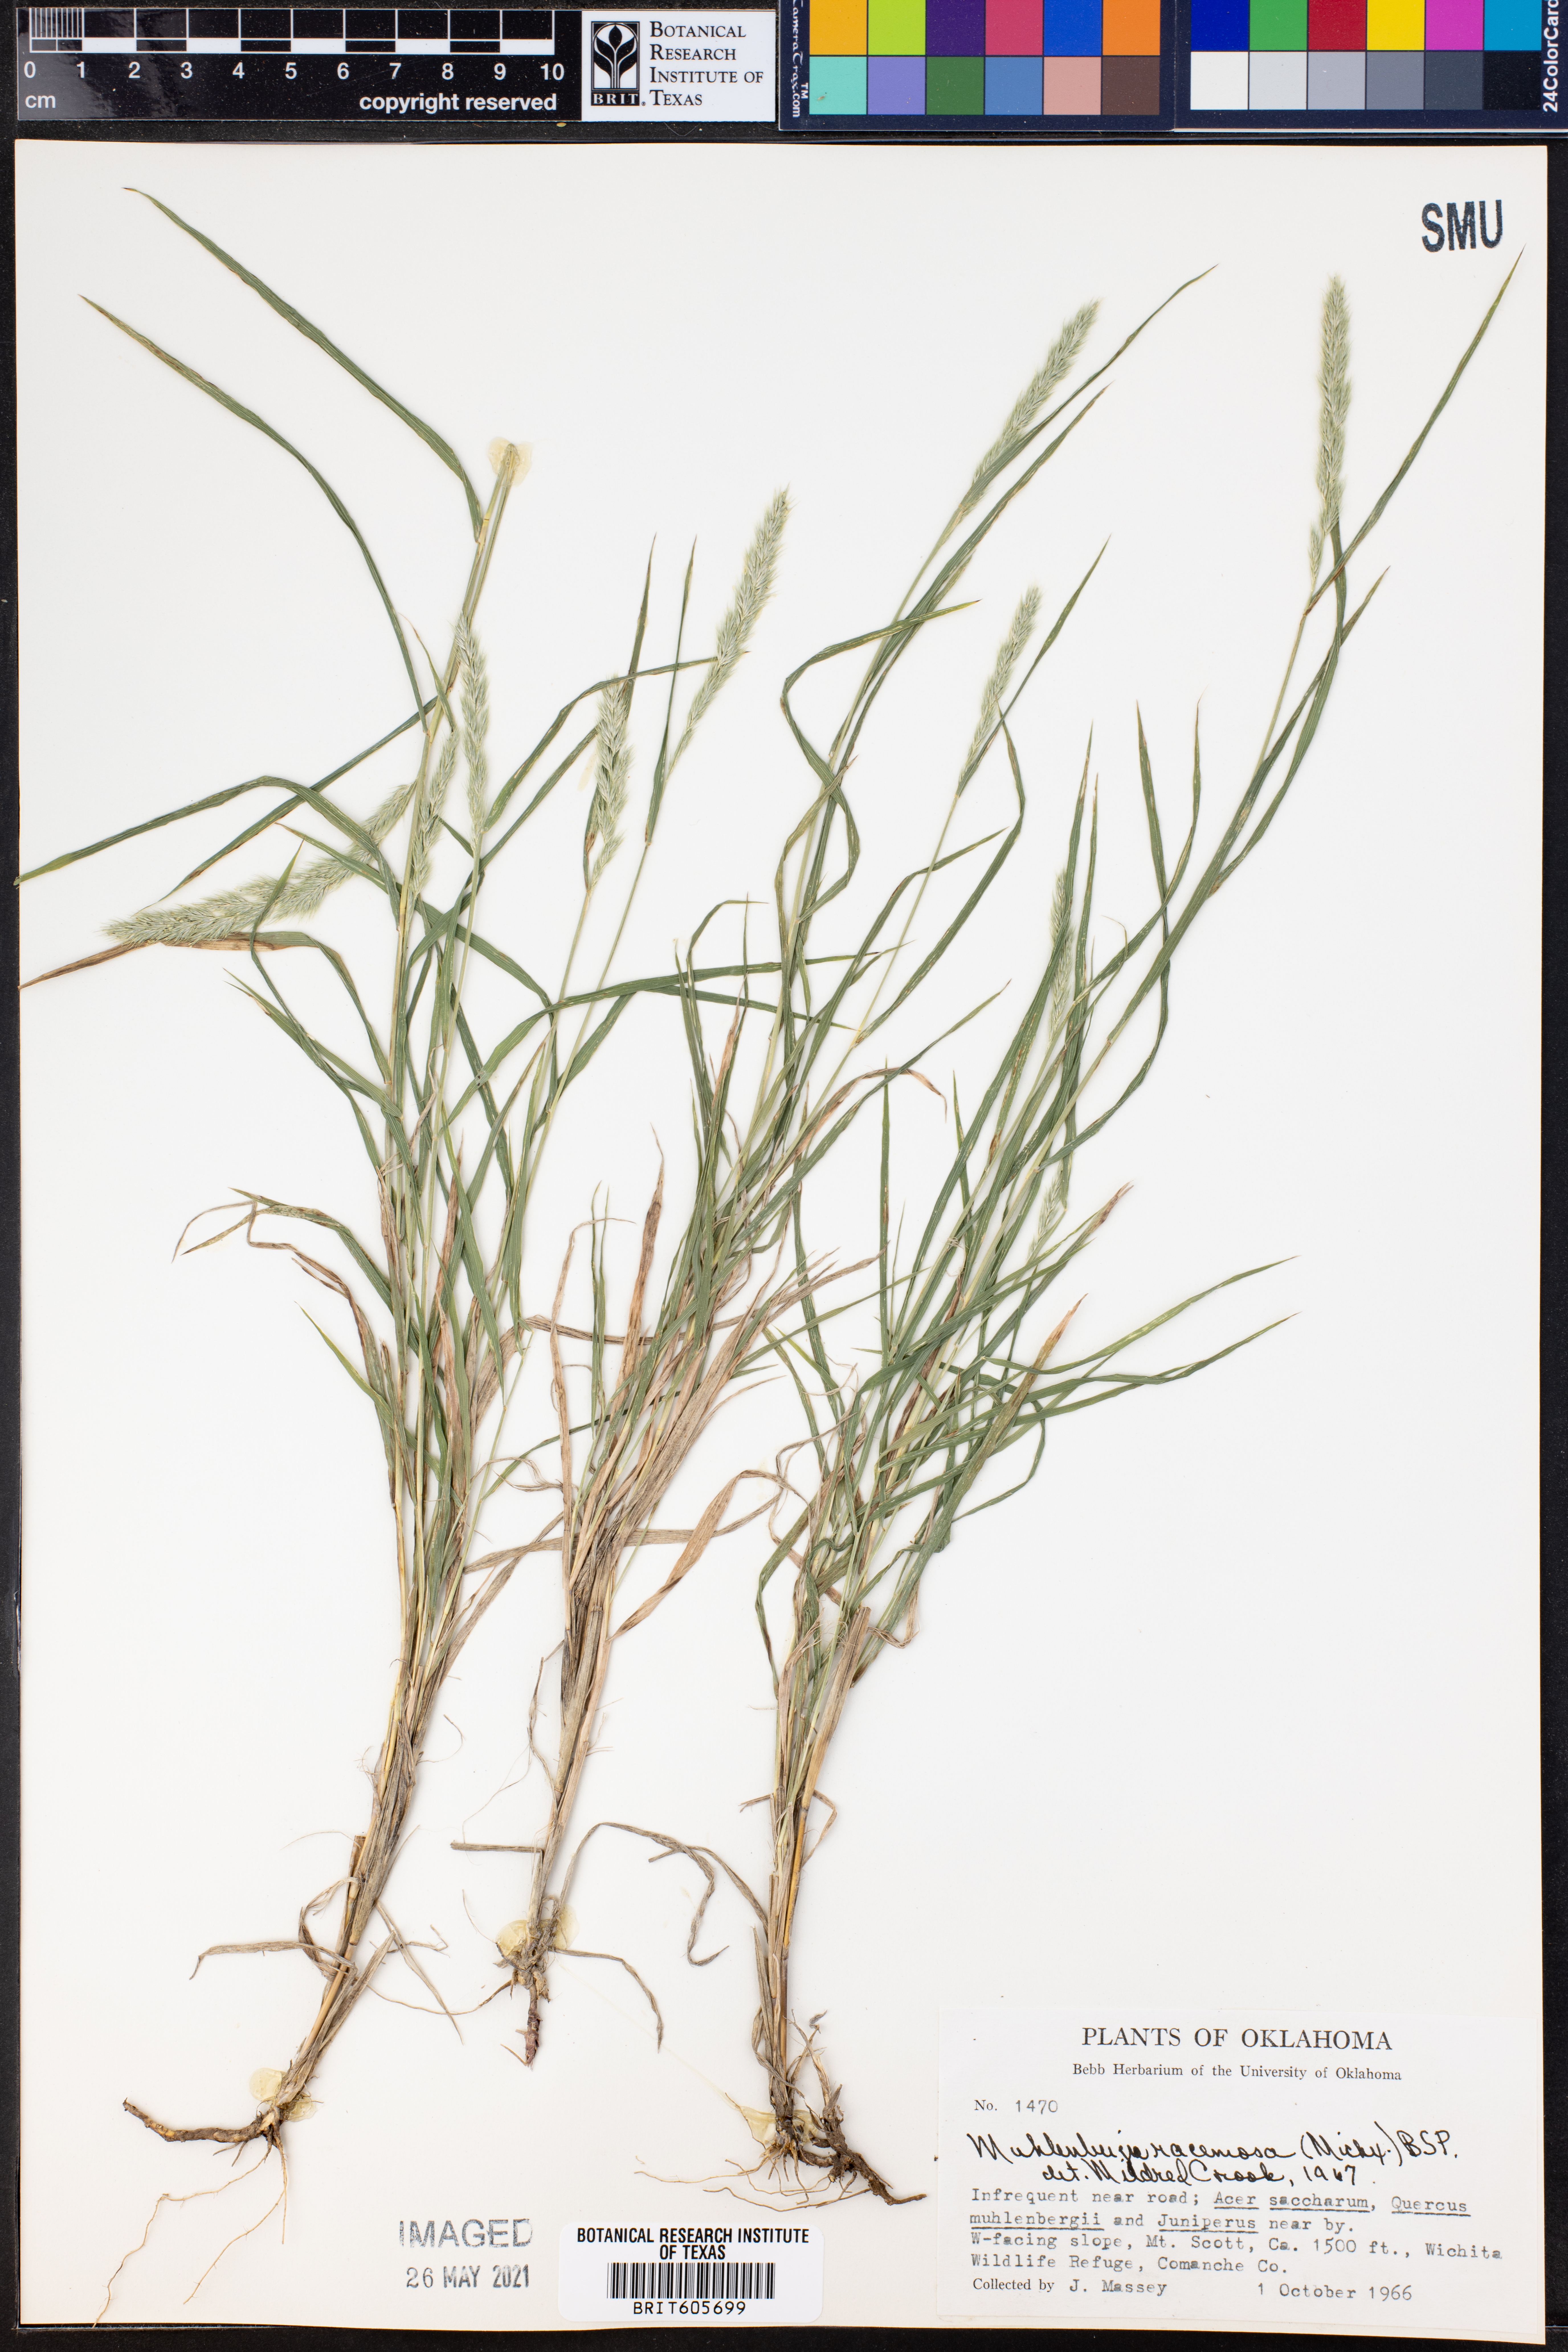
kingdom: Plantae
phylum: Tracheophyta
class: Liliopsida
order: Poales
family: Poaceae
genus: Muhlenbergia
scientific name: Muhlenbergia racemosa
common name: Green muhly
